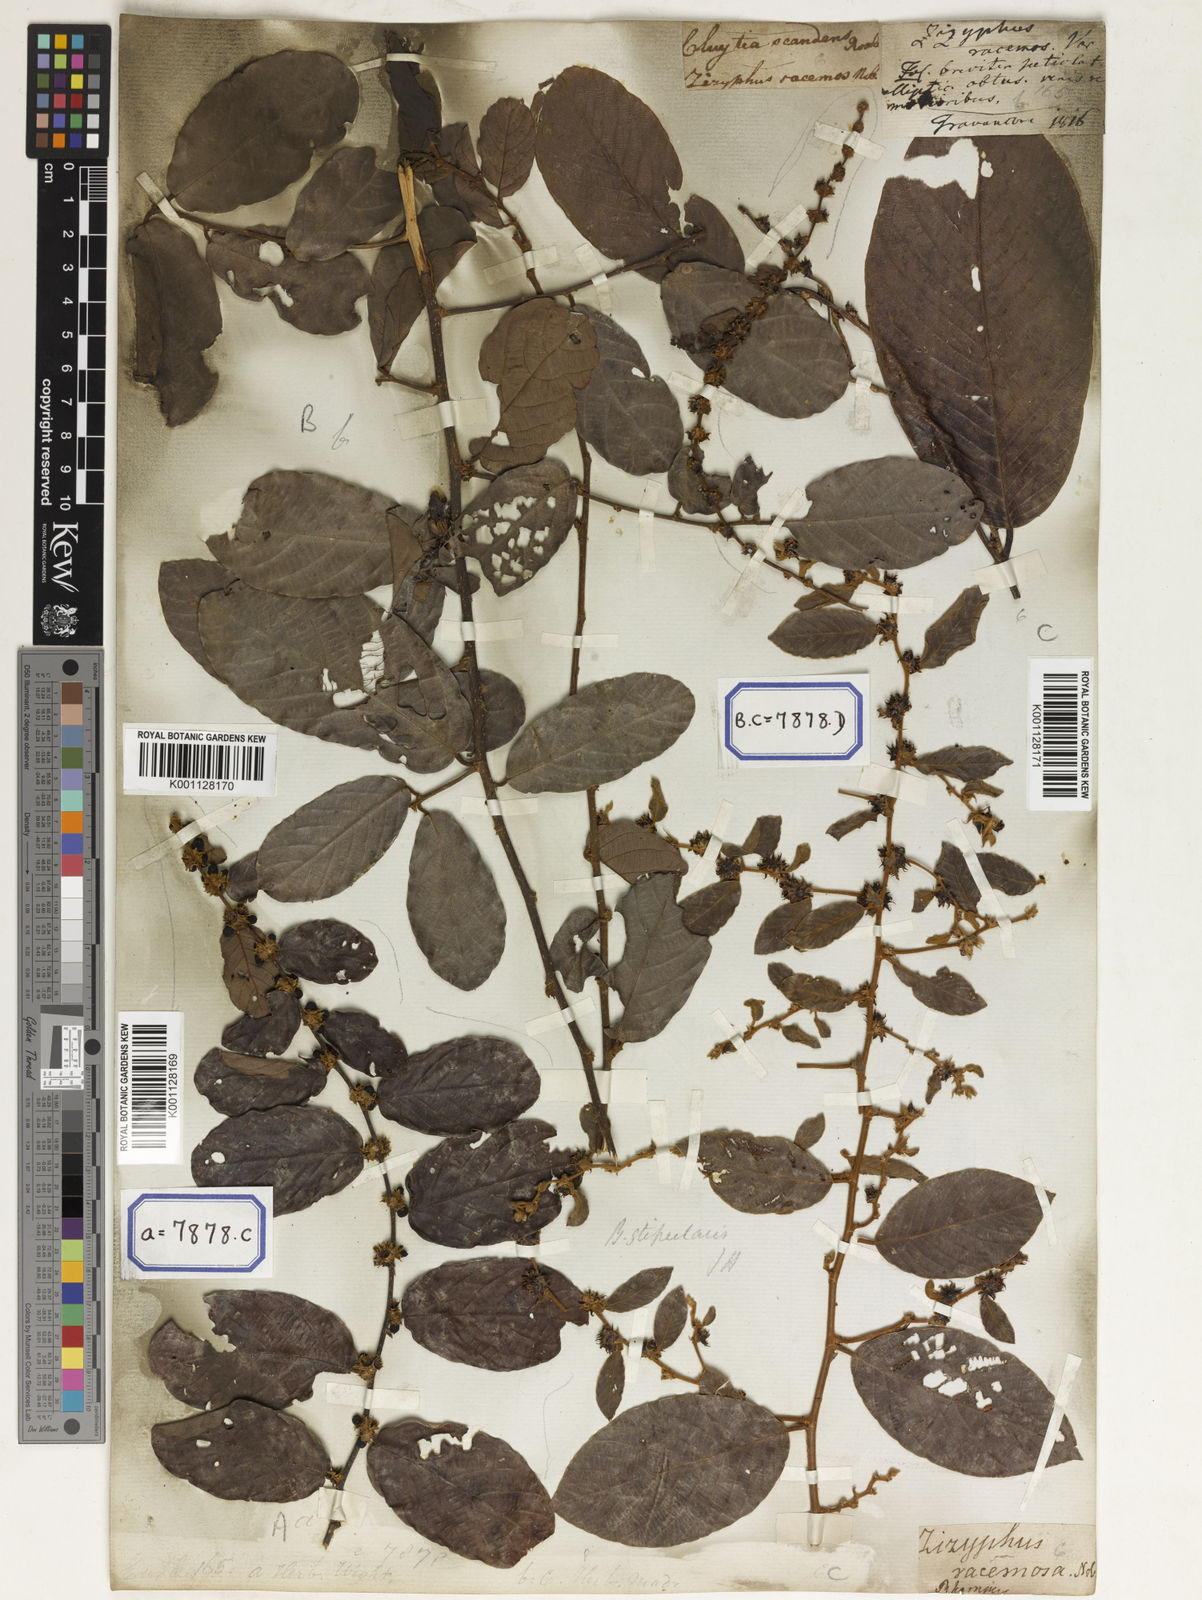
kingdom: Plantae
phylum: Tracheophyta
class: Magnoliopsida
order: Malpighiales
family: Phyllanthaceae
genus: Bridelia
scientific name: Bridelia
